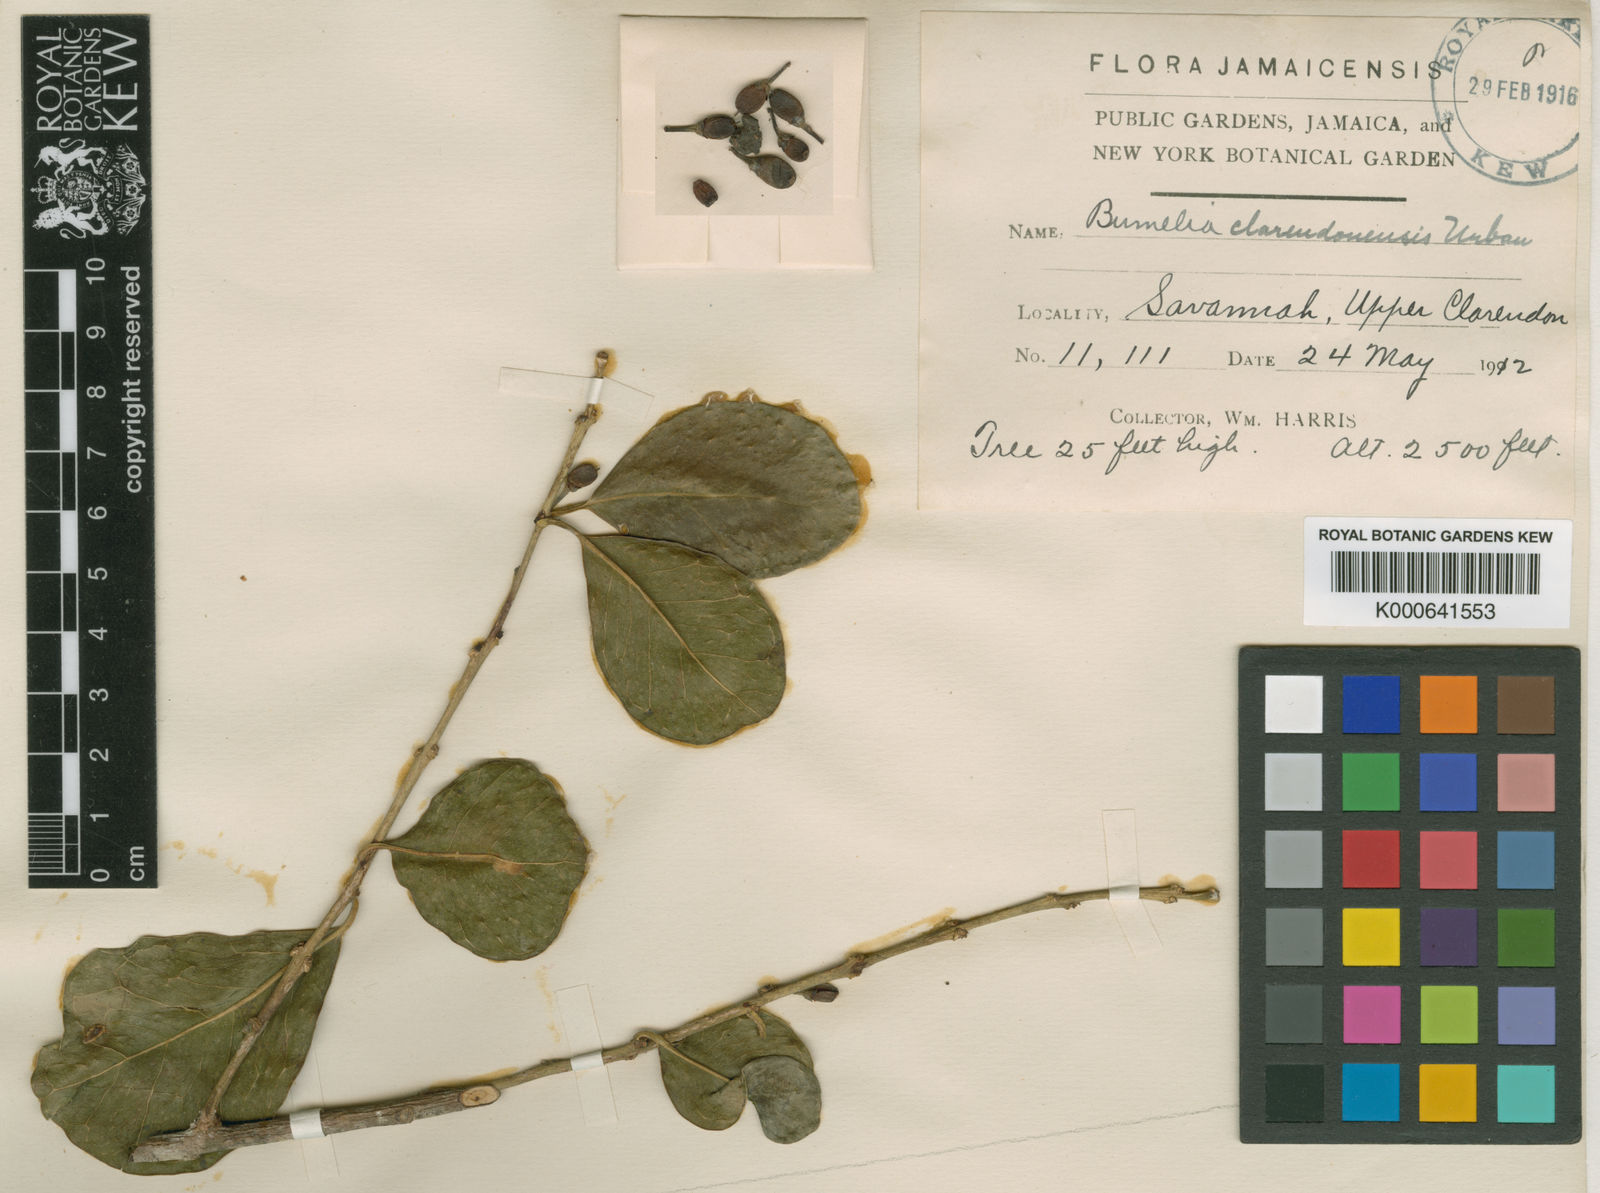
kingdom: Plantae
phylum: Tracheophyta
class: Magnoliopsida
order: Ericales
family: Sapotaceae
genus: Sideroxylon
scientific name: Sideroxylon rotundifolium
